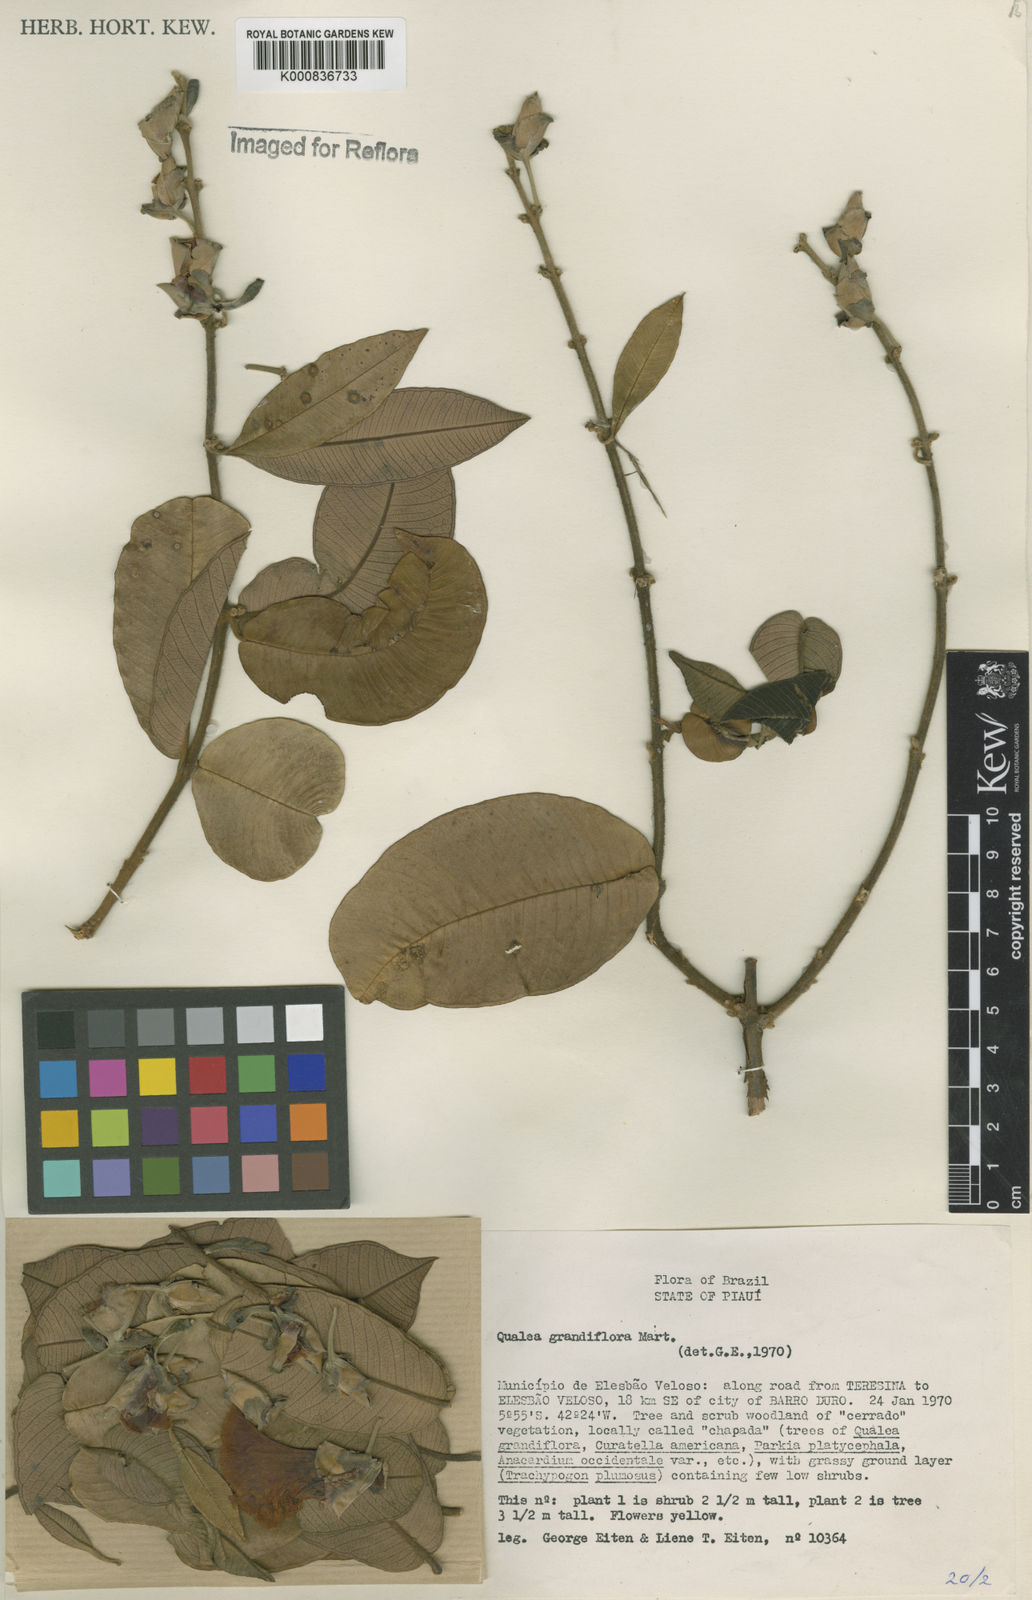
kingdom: Plantae
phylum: Tracheophyta
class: Magnoliopsida
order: Myrtales
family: Vochysiaceae
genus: Qualea
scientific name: Qualea grandiflora
